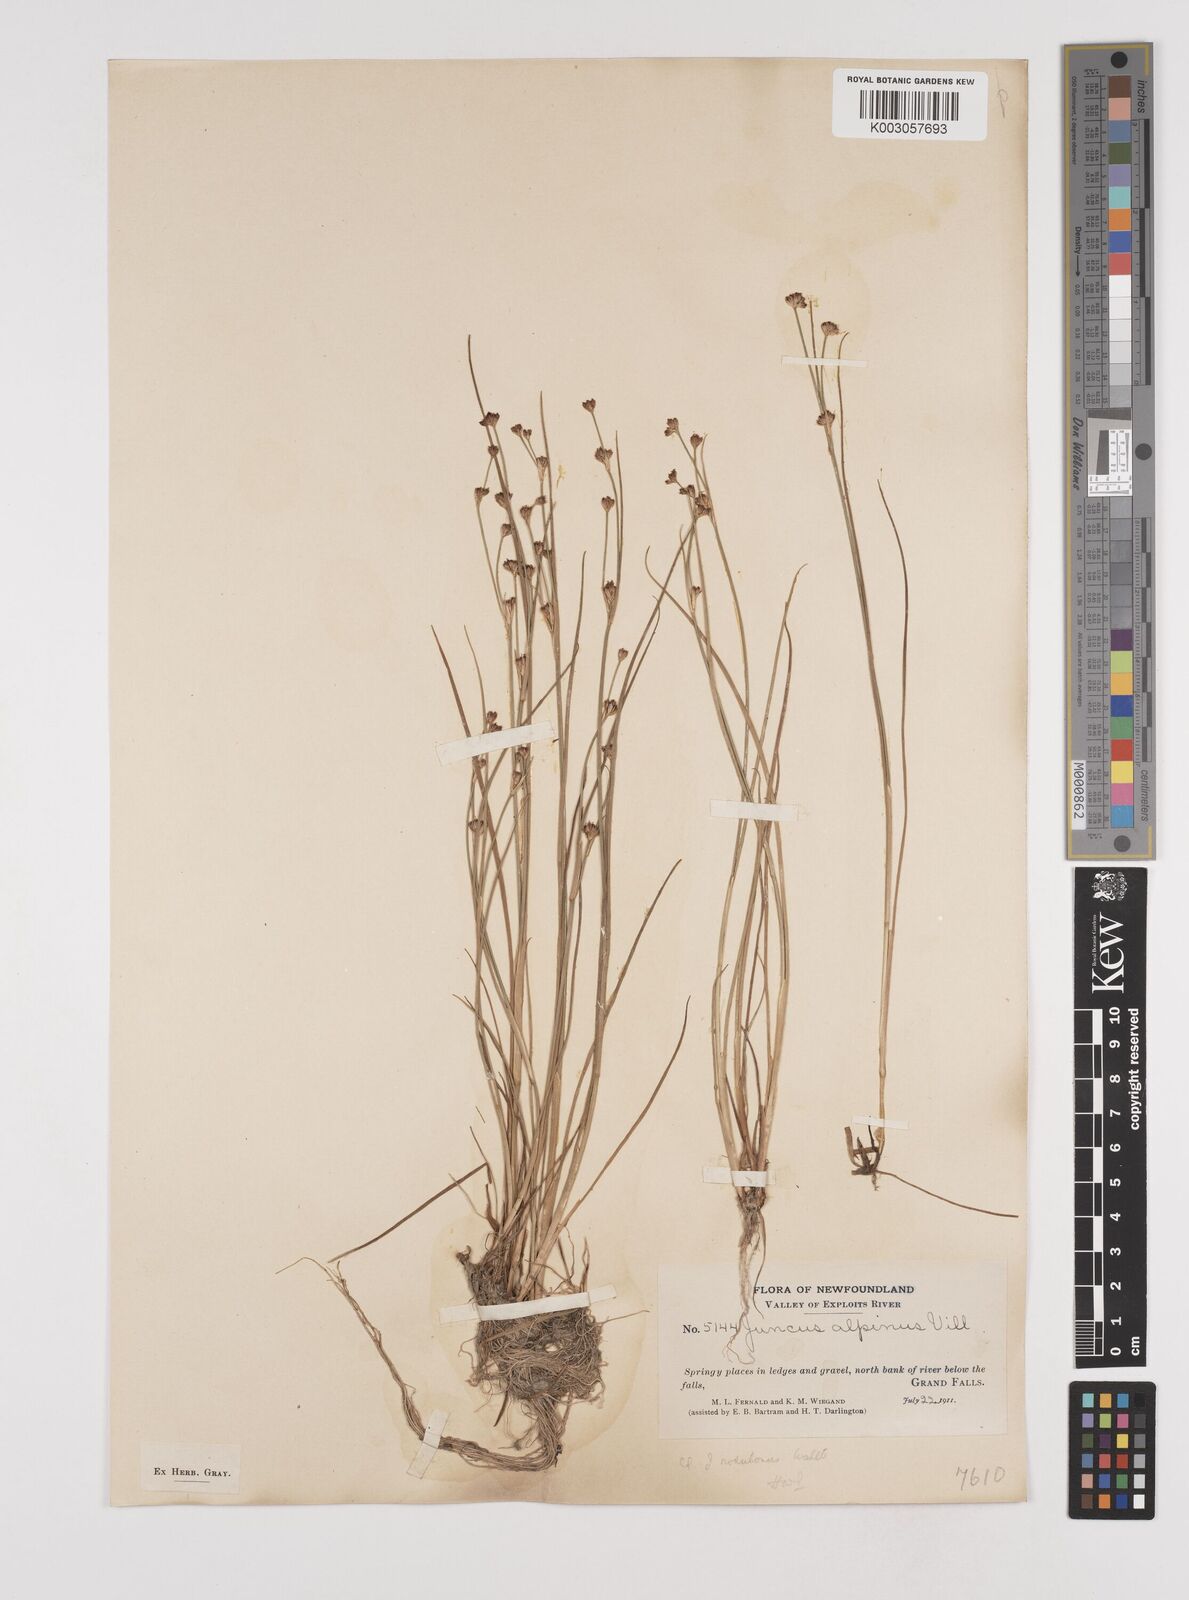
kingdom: Plantae
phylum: Tracheophyta
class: Liliopsida
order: Poales
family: Juncaceae
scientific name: Juncaceae
